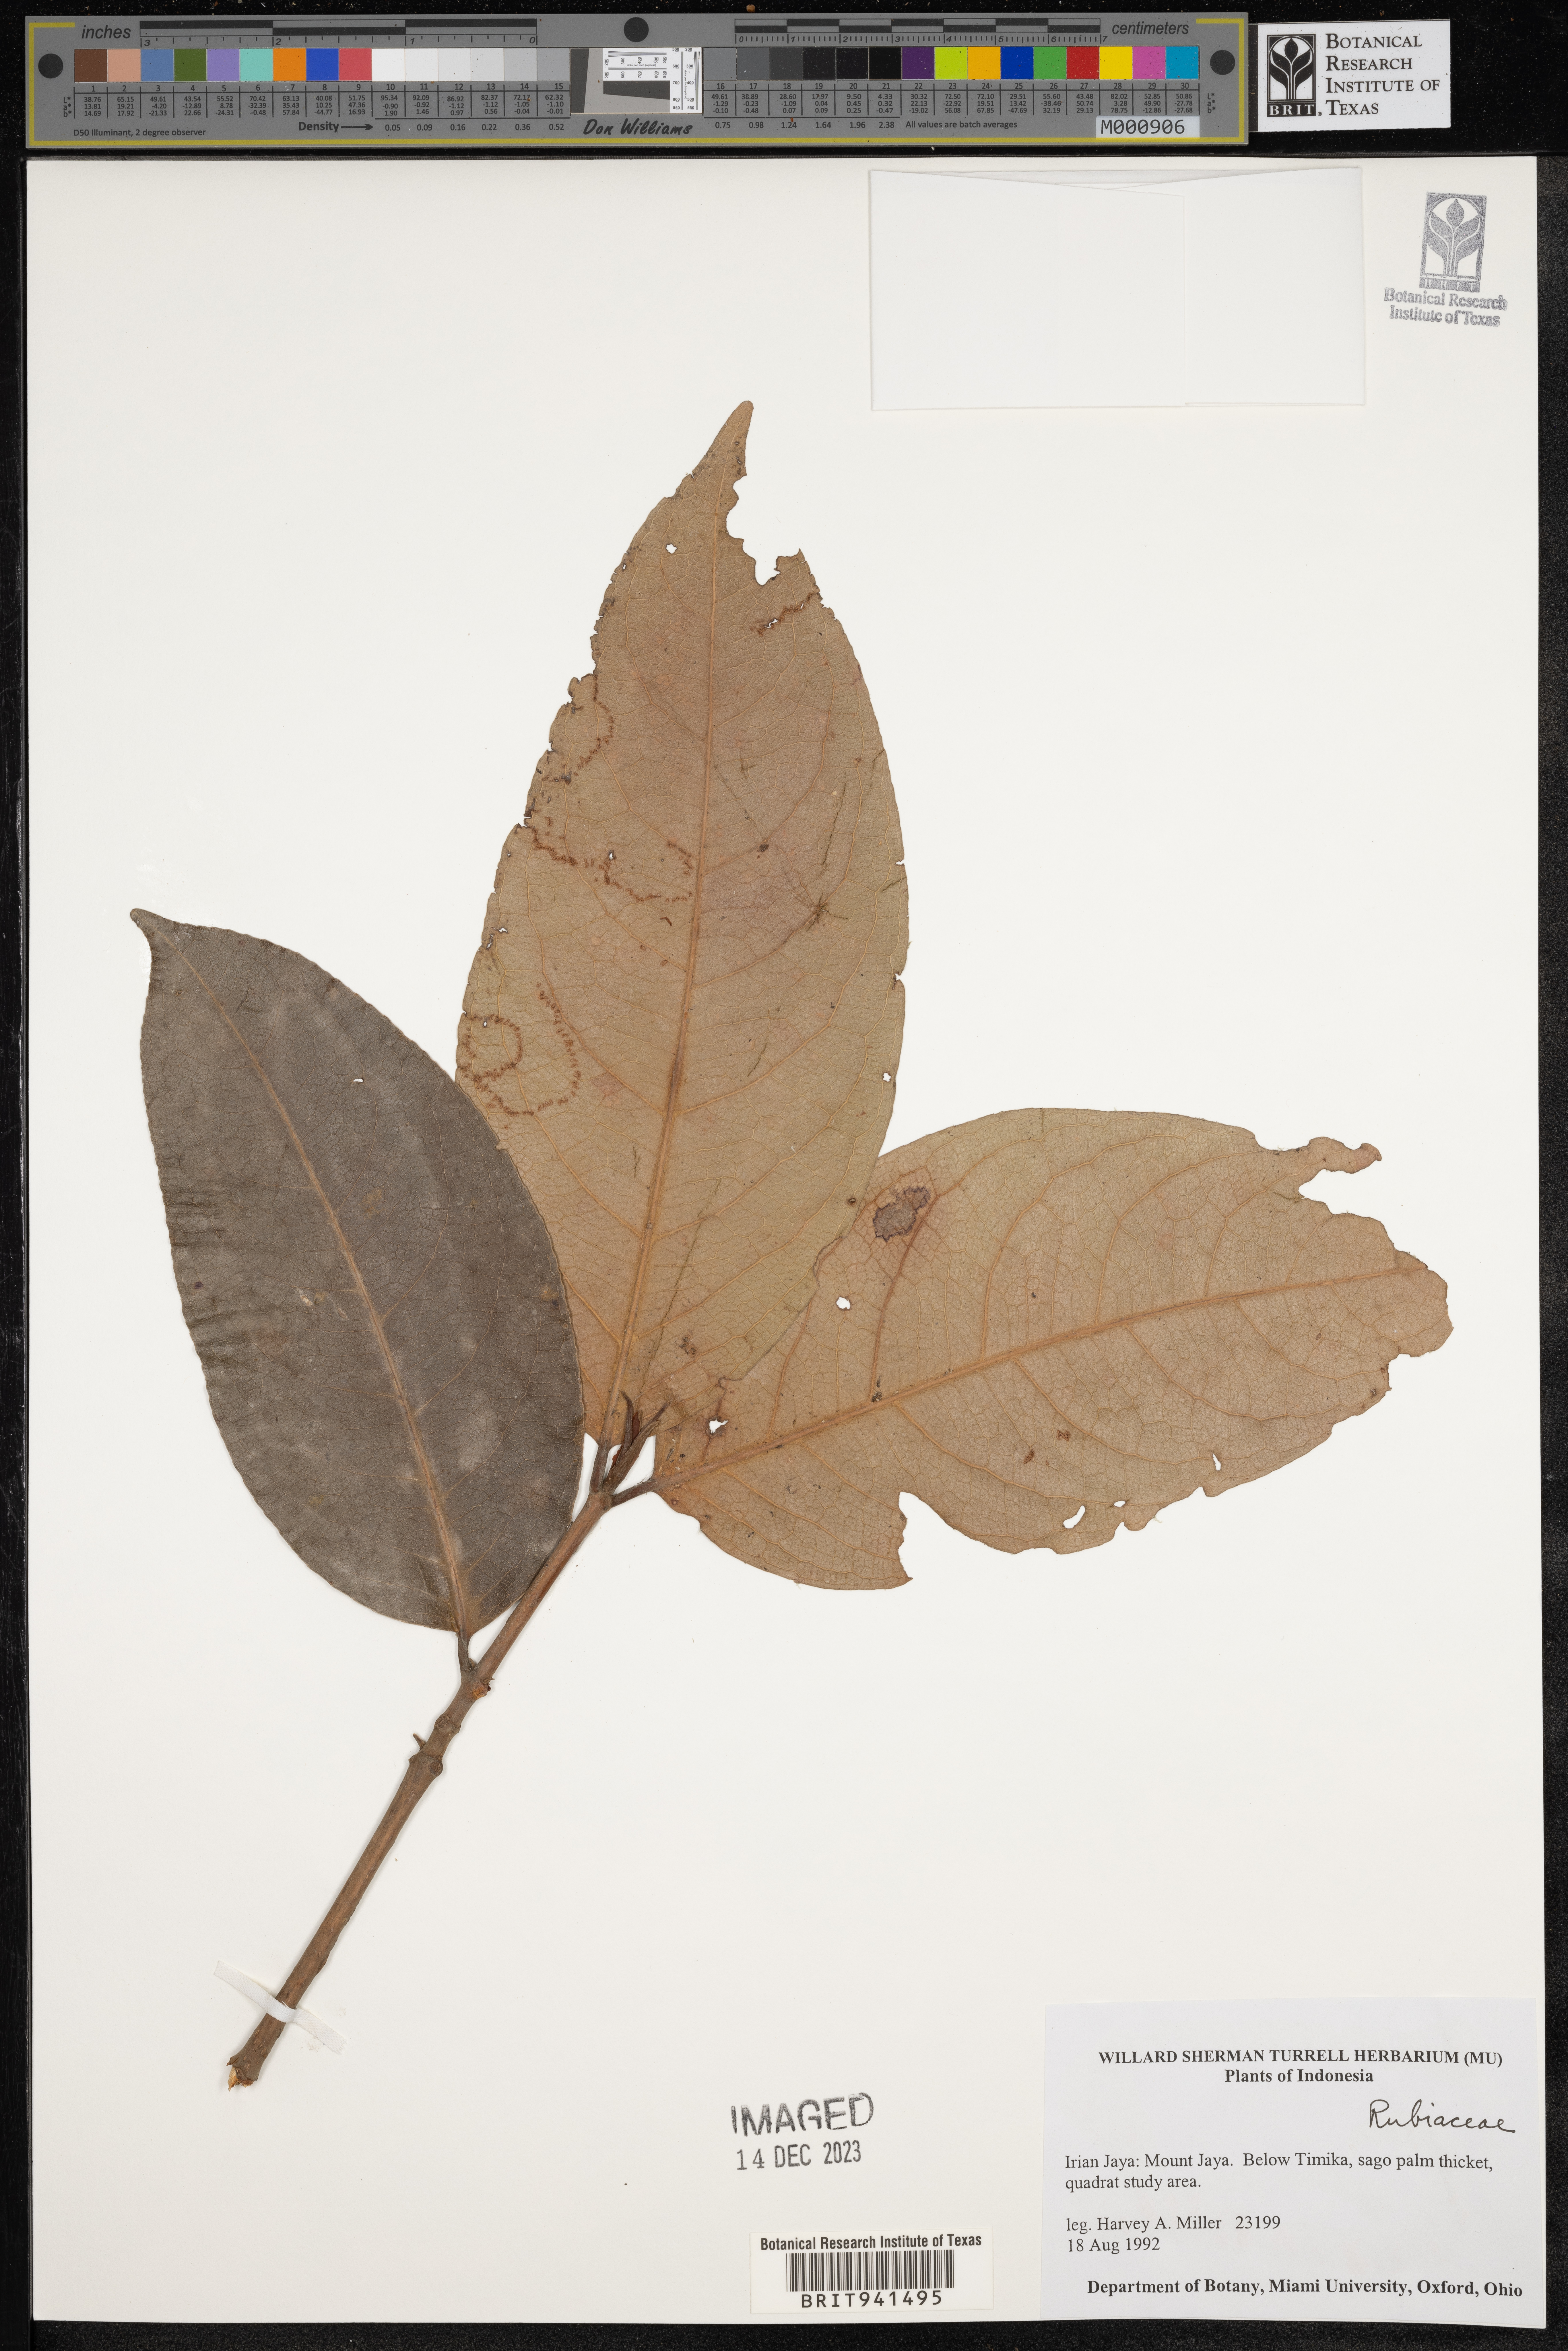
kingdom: Plantae
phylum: Tracheophyta
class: Magnoliopsida
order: Gentianales
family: Rubiaceae
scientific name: Rubiaceae
